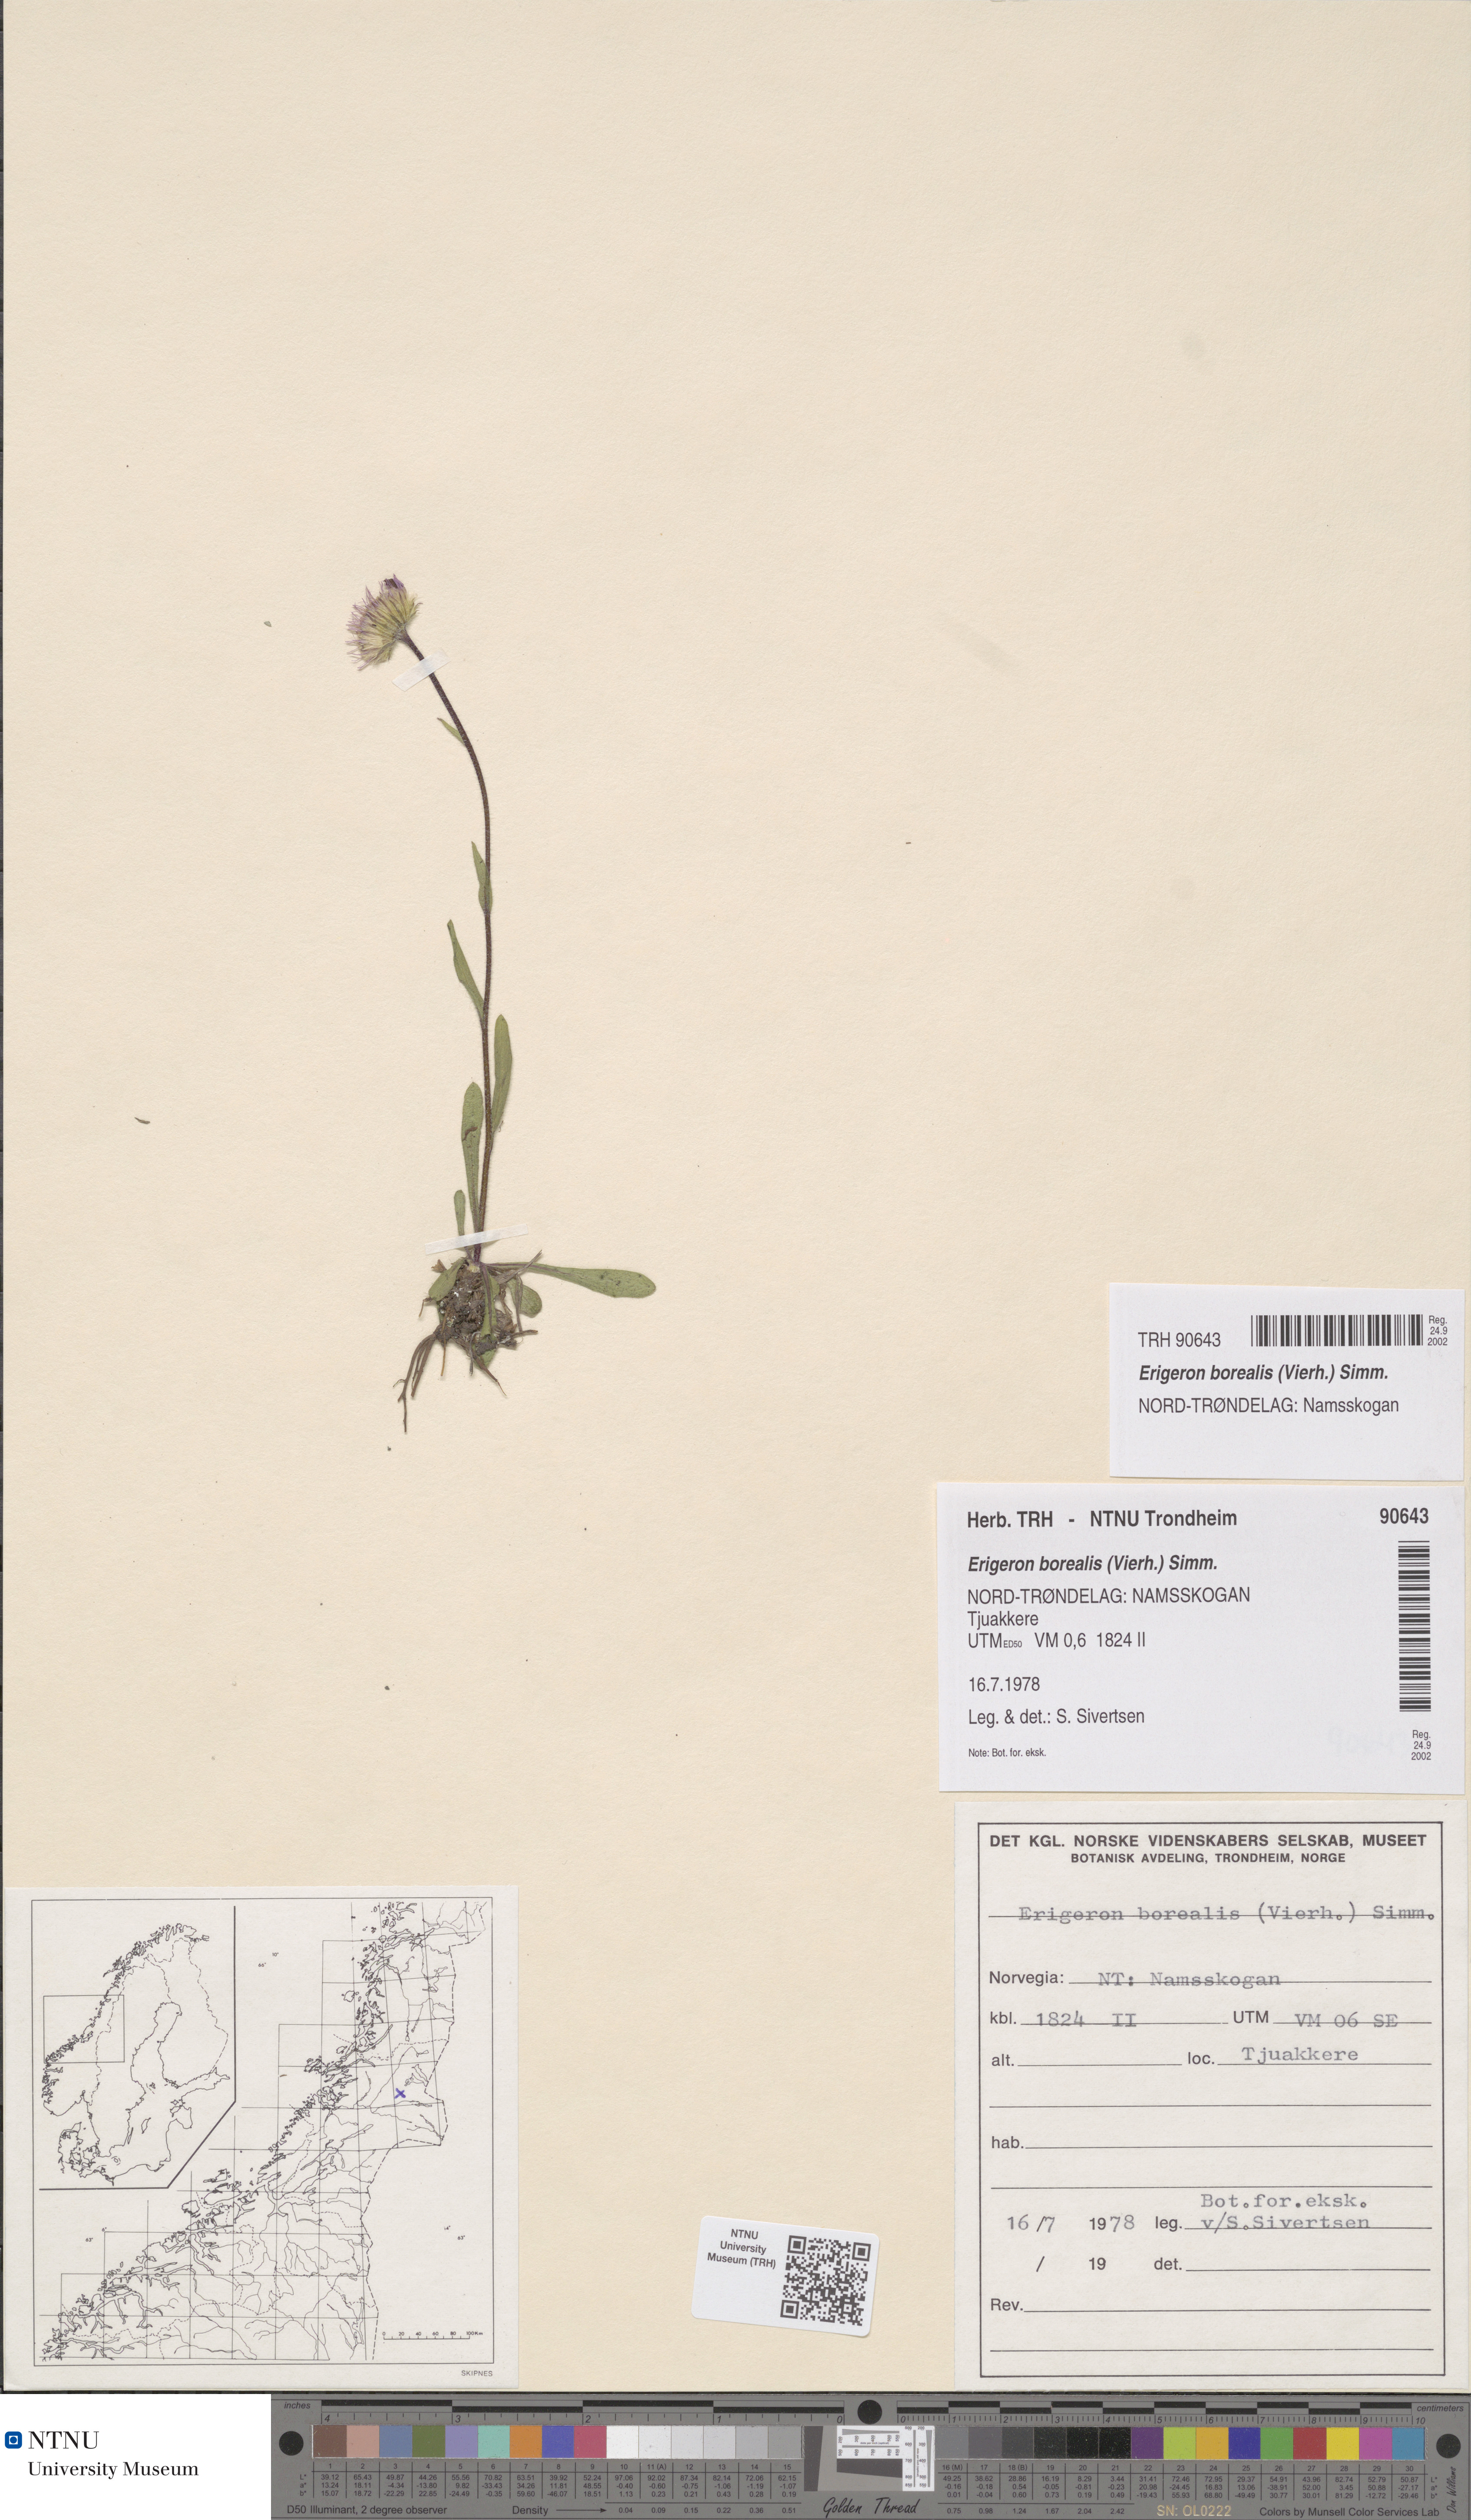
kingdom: Plantae
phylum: Tracheophyta
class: Magnoliopsida
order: Asterales
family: Asteraceae
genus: Erigeron
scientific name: Erigeron borealis
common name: Alpine fleabane
